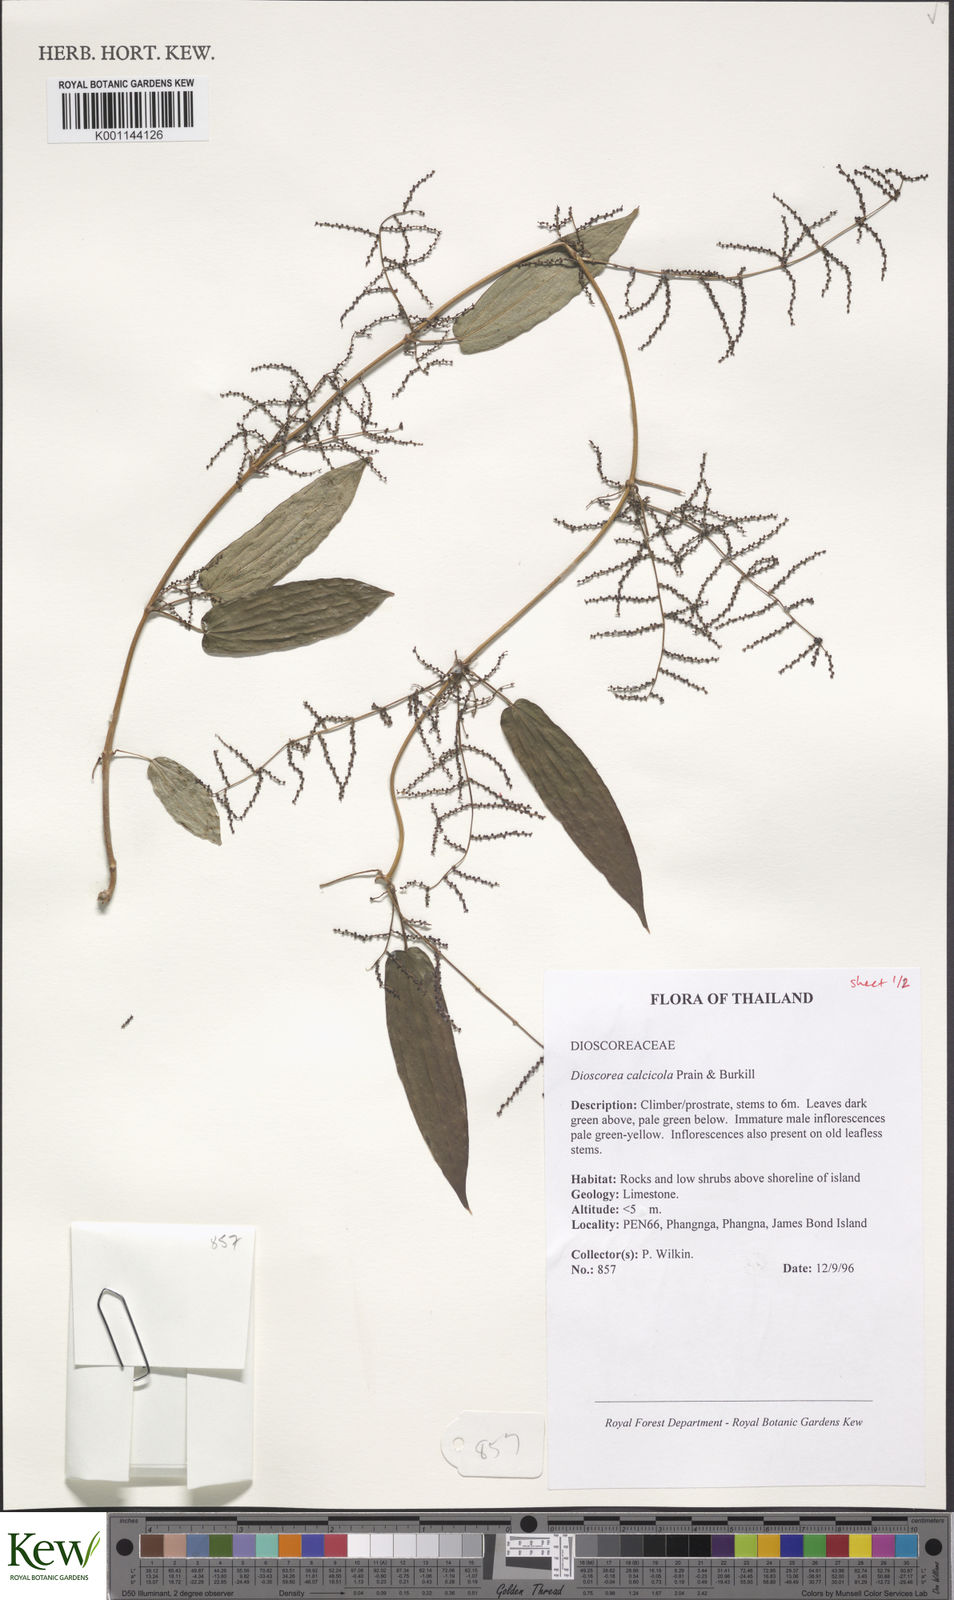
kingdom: Plantae
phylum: Tracheophyta
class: Liliopsida
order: Dioscoreales
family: Dioscoreaceae
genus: Dioscorea
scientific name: Dioscorea calcicola
